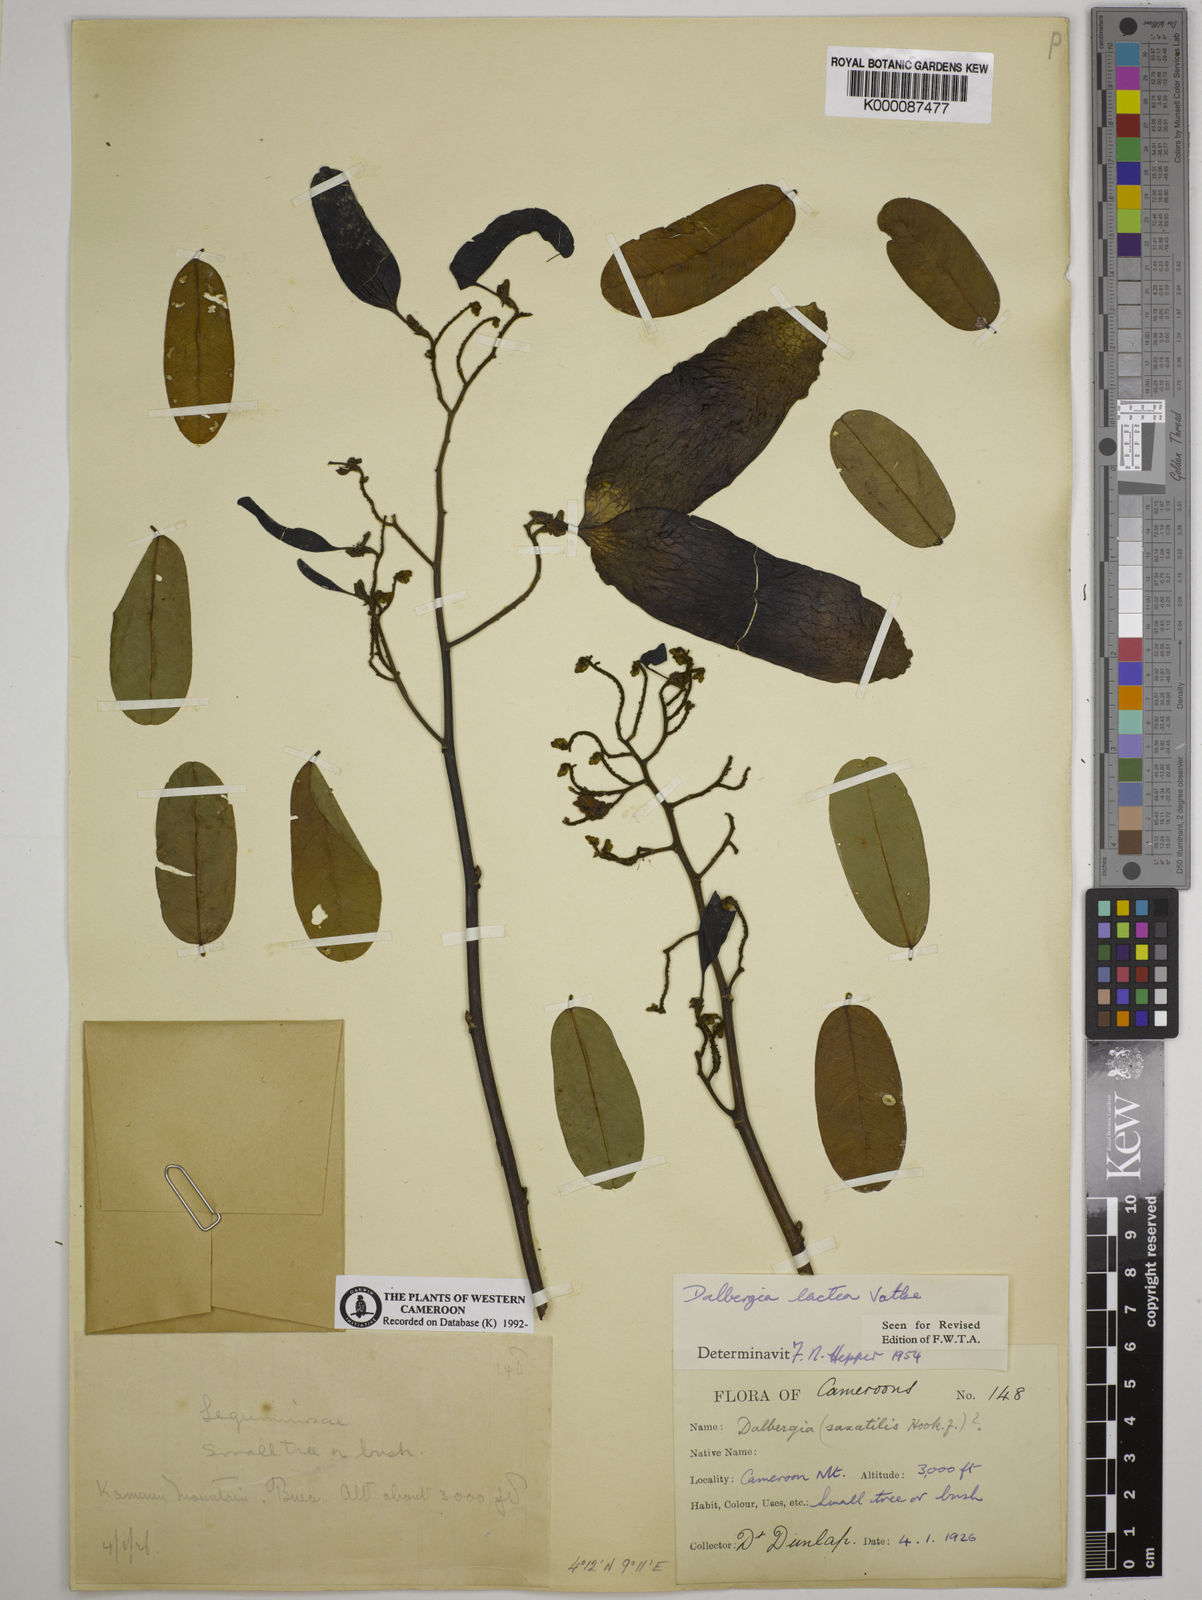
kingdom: Plantae
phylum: Tracheophyta
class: Magnoliopsida
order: Fabales
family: Fabaceae
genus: Dalbergia
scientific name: Dalbergia lactea
